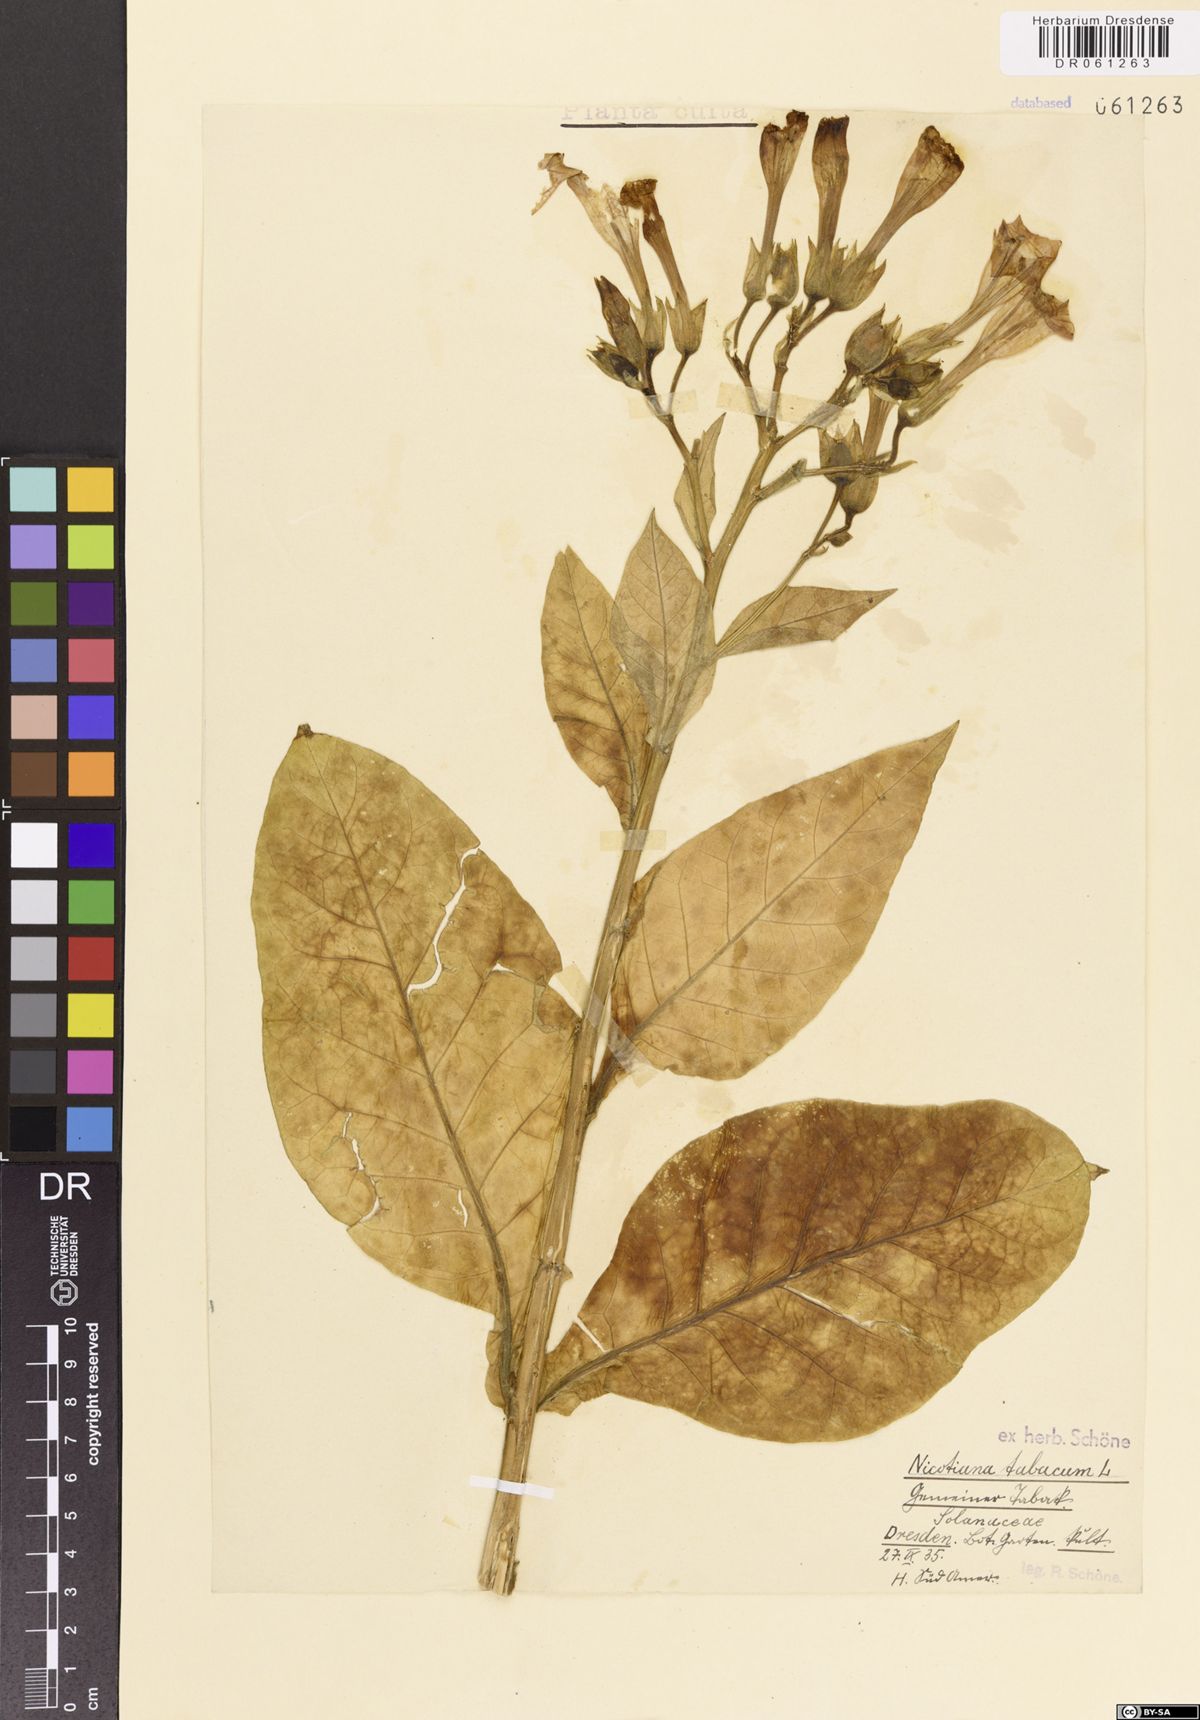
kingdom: Plantae
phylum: Tracheophyta
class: Magnoliopsida
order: Solanales
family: Solanaceae
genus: Nicotiana
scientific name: Nicotiana tabacum
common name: Tobacco
